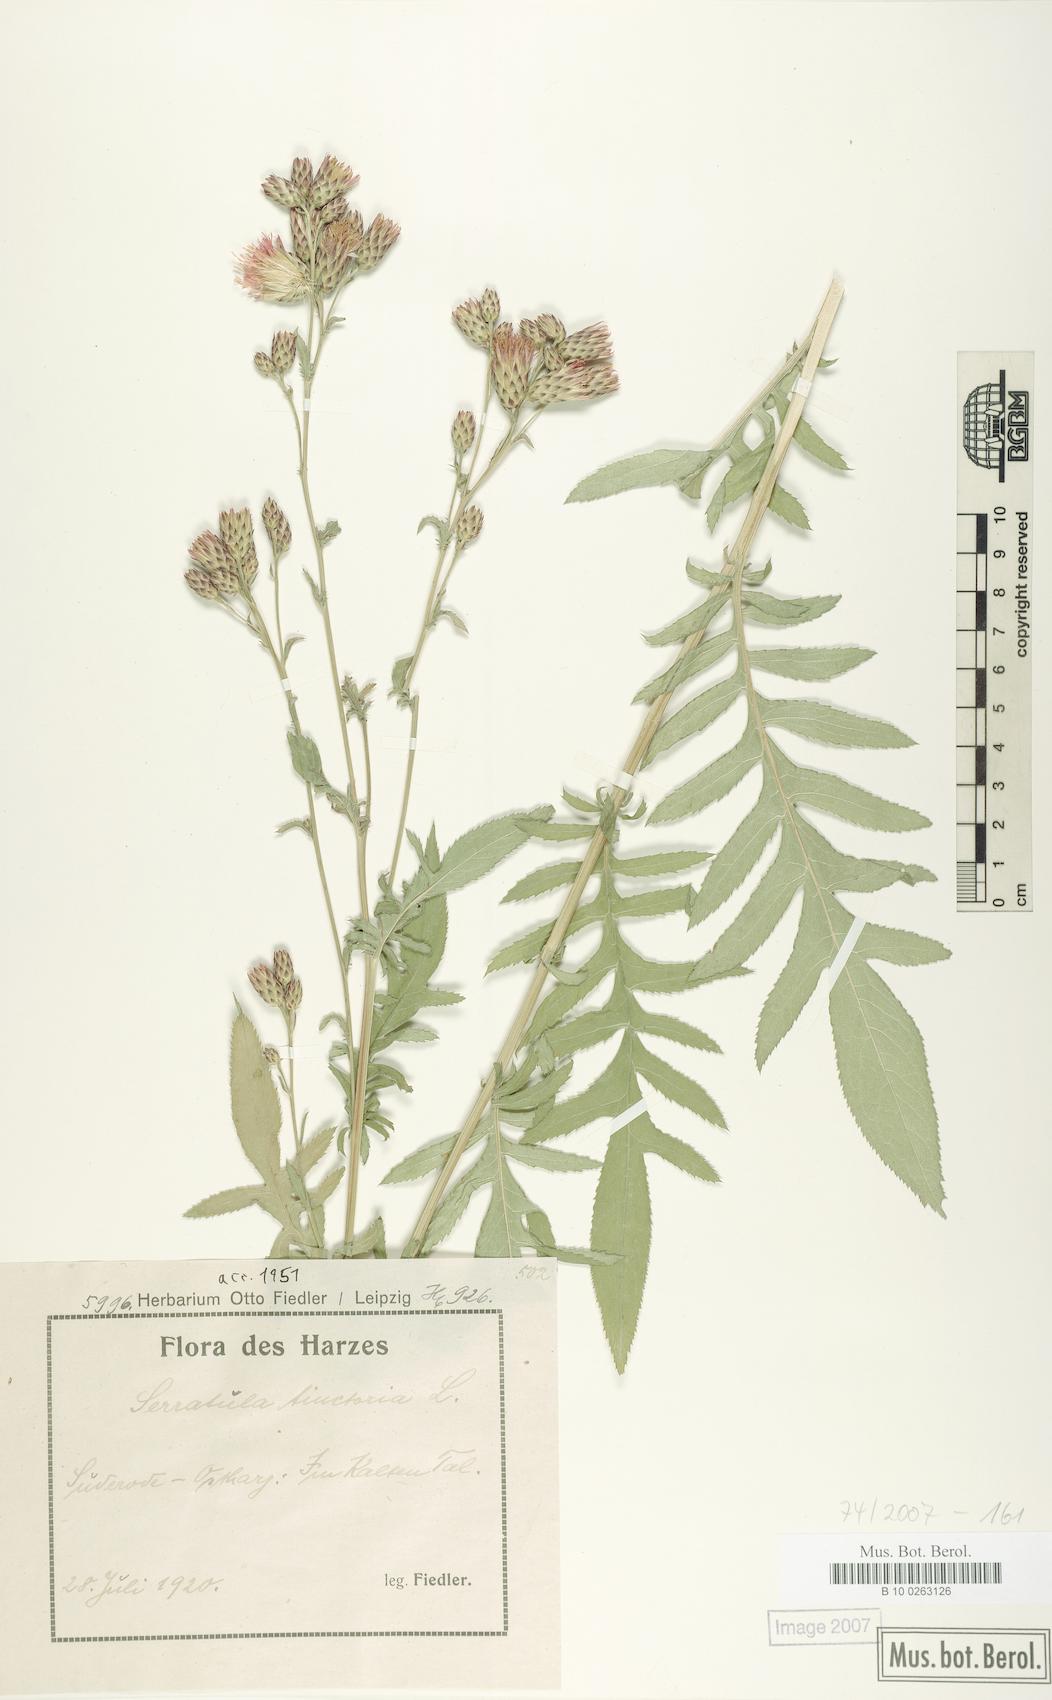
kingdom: Plantae
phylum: Tracheophyta
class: Magnoliopsida
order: Asterales
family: Asteraceae
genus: Serratula
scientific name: Serratula tinctoria
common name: Saw-wort
